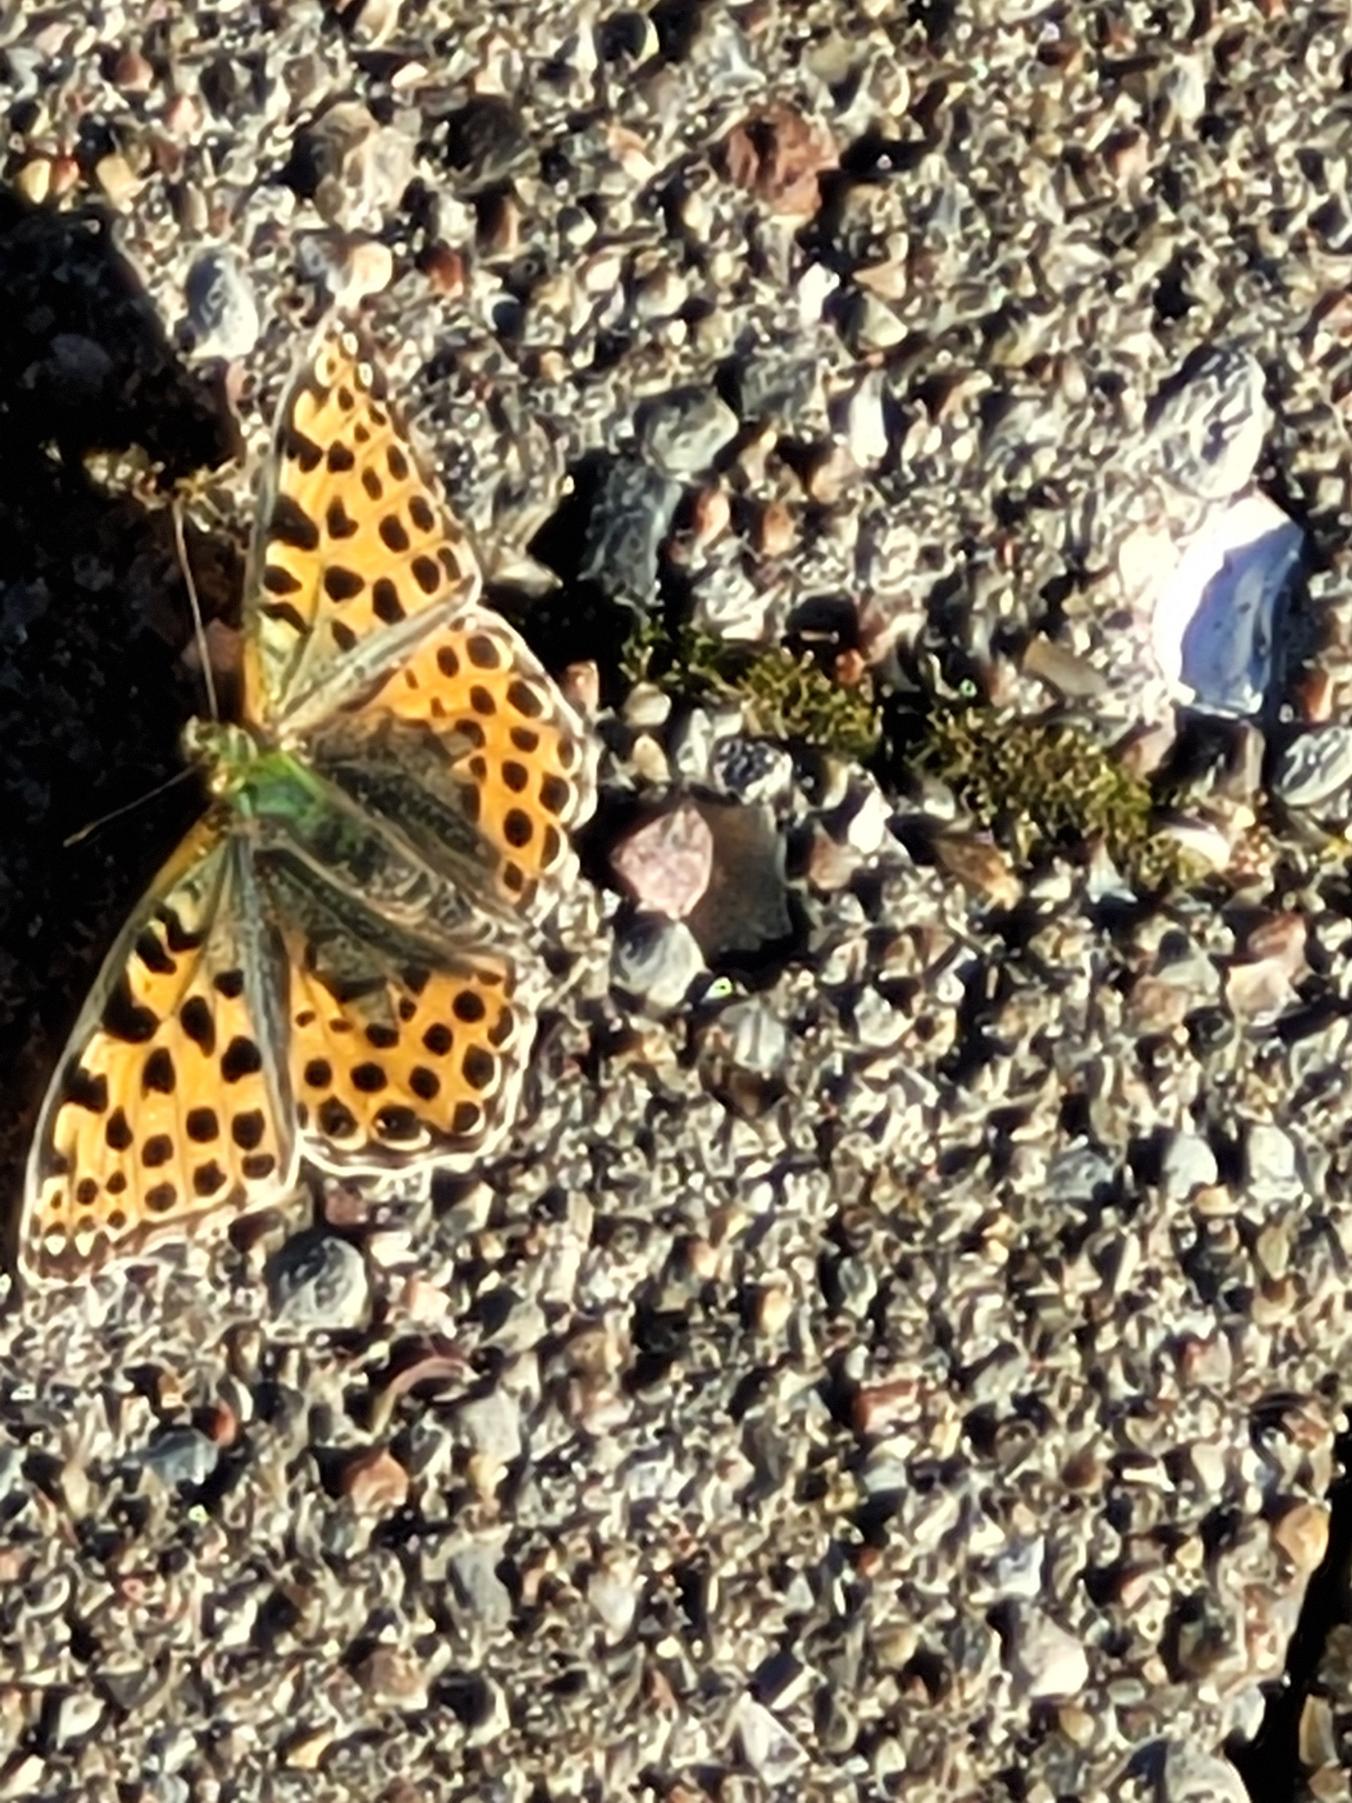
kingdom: Animalia
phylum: Arthropoda
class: Insecta
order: Lepidoptera
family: Nymphalidae
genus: Issoria
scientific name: Issoria lathonia
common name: Storplettet perlemorsommerfugl
